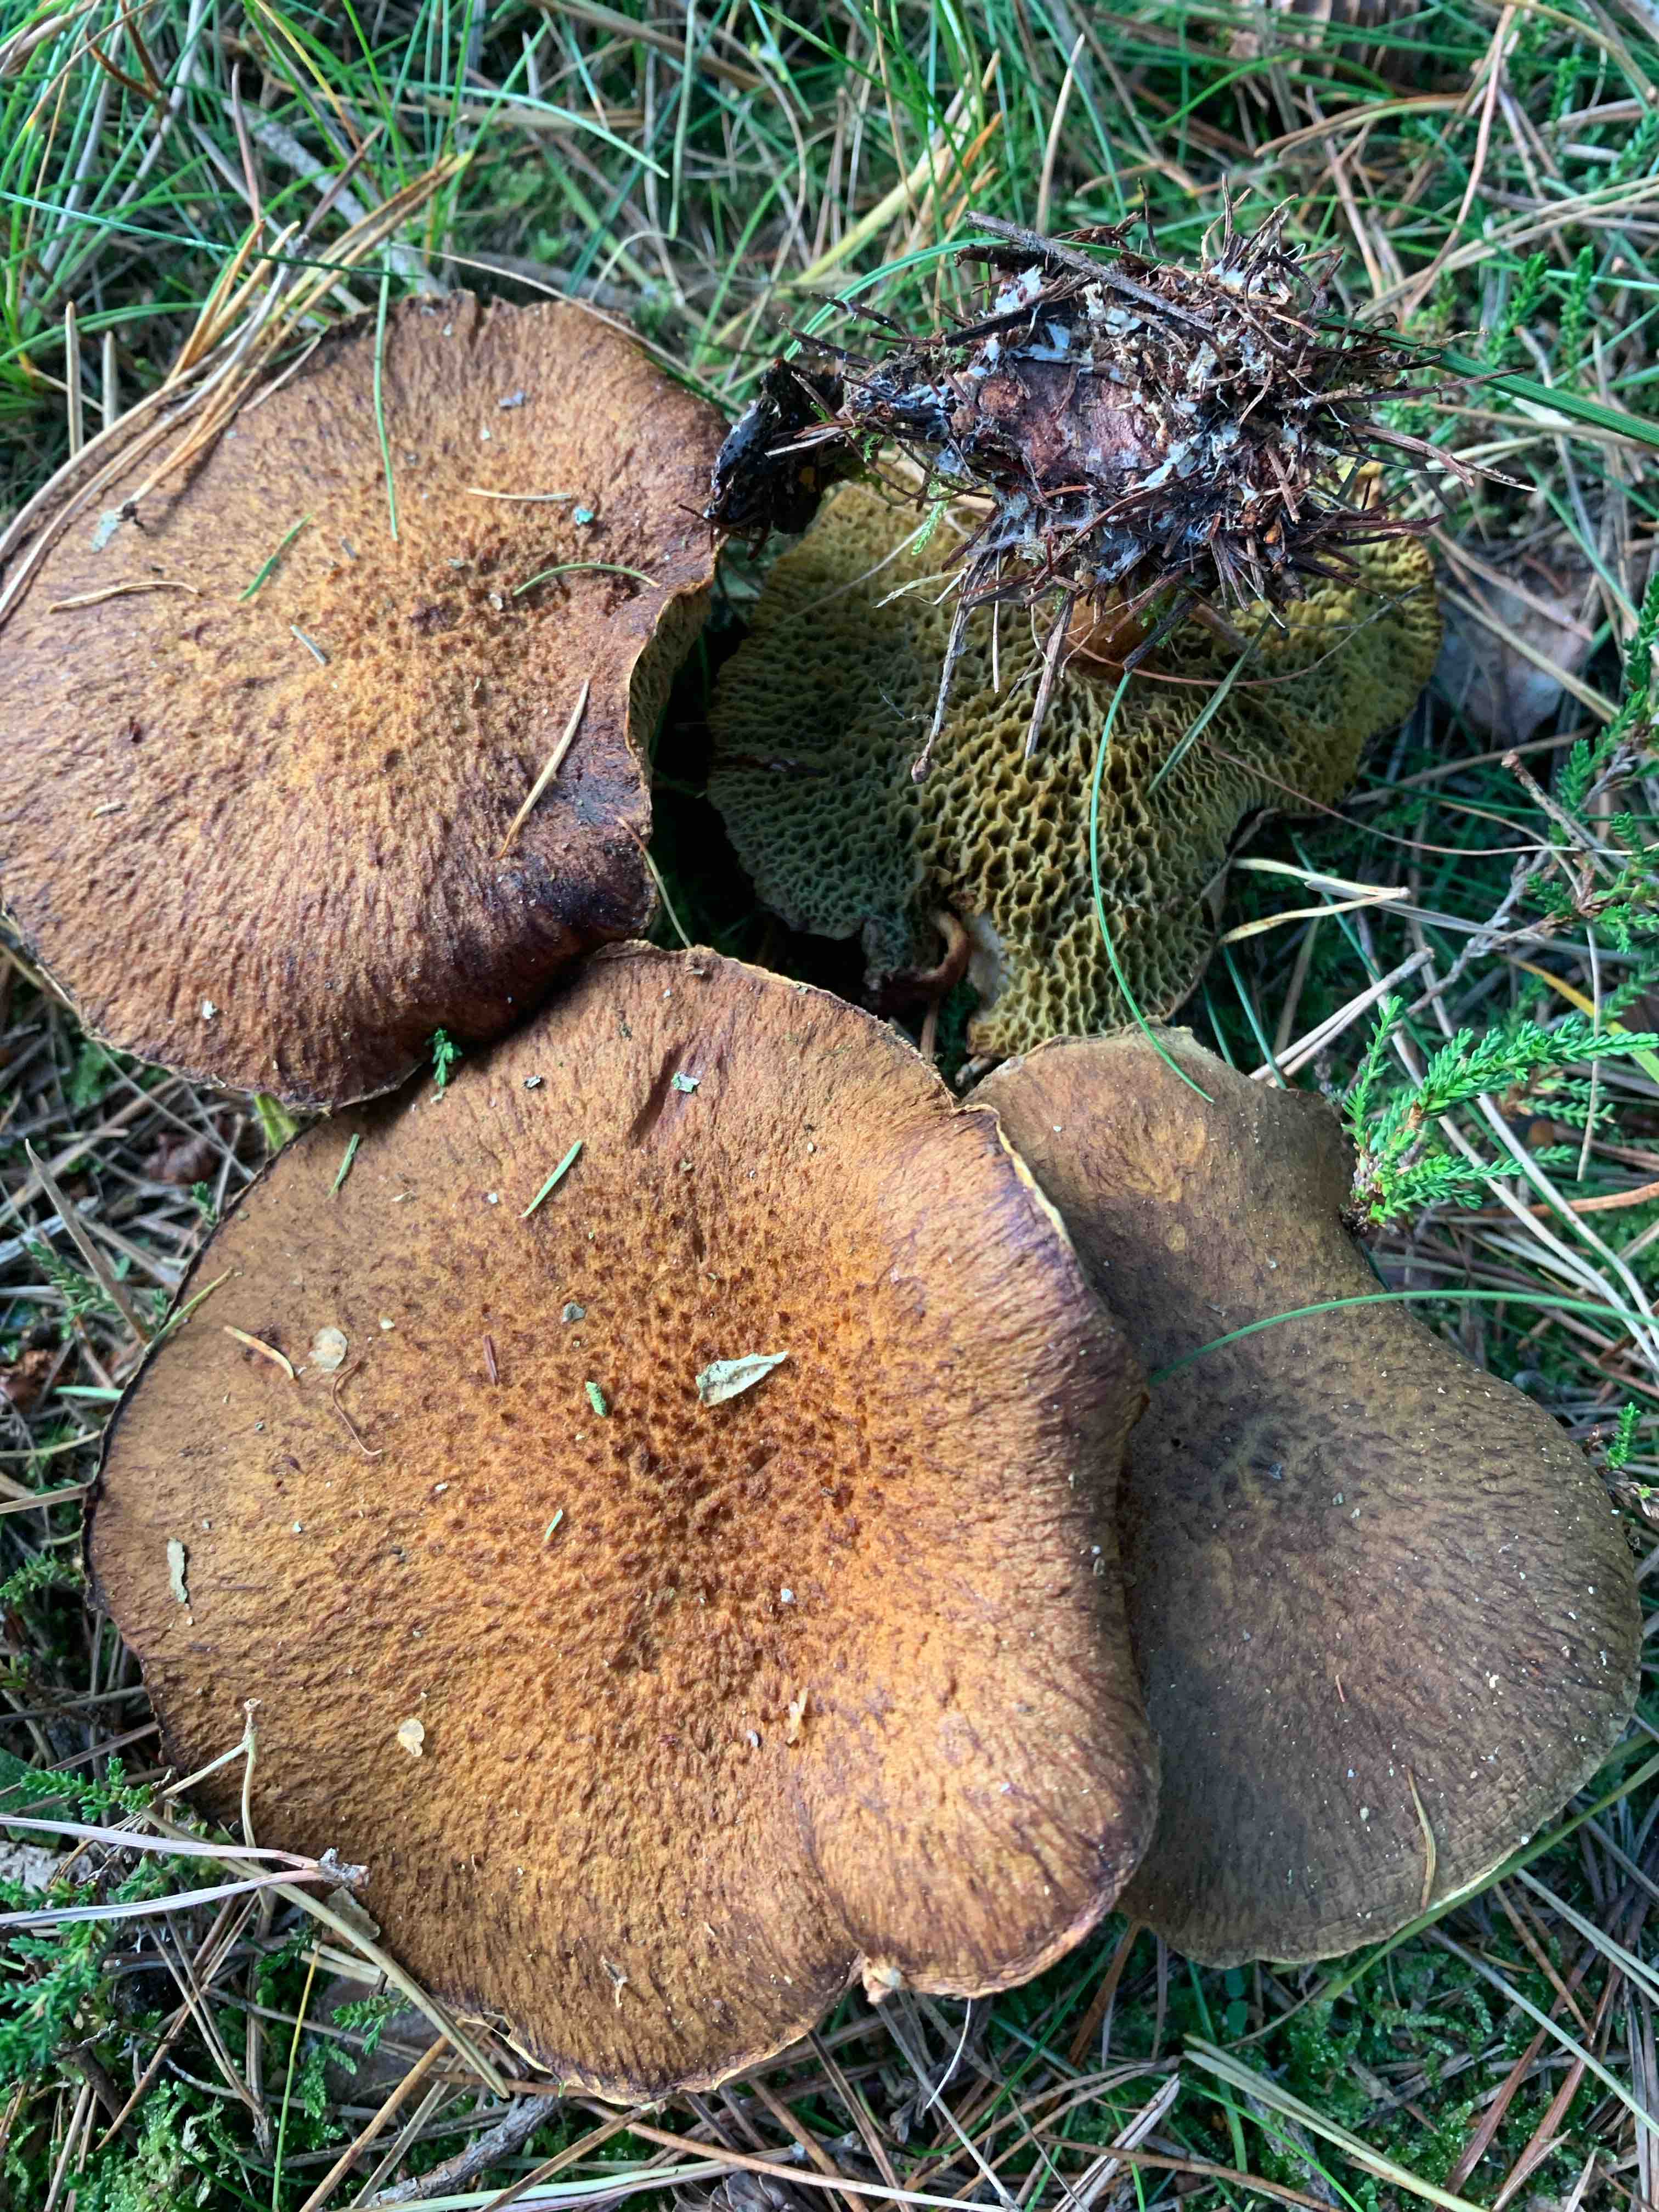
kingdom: Fungi
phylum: Basidiomycota
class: Agaricomycetes
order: Boletales
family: Suillaceae
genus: Suillus
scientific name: Suillus cavipes
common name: hulstokket slimrørhat
